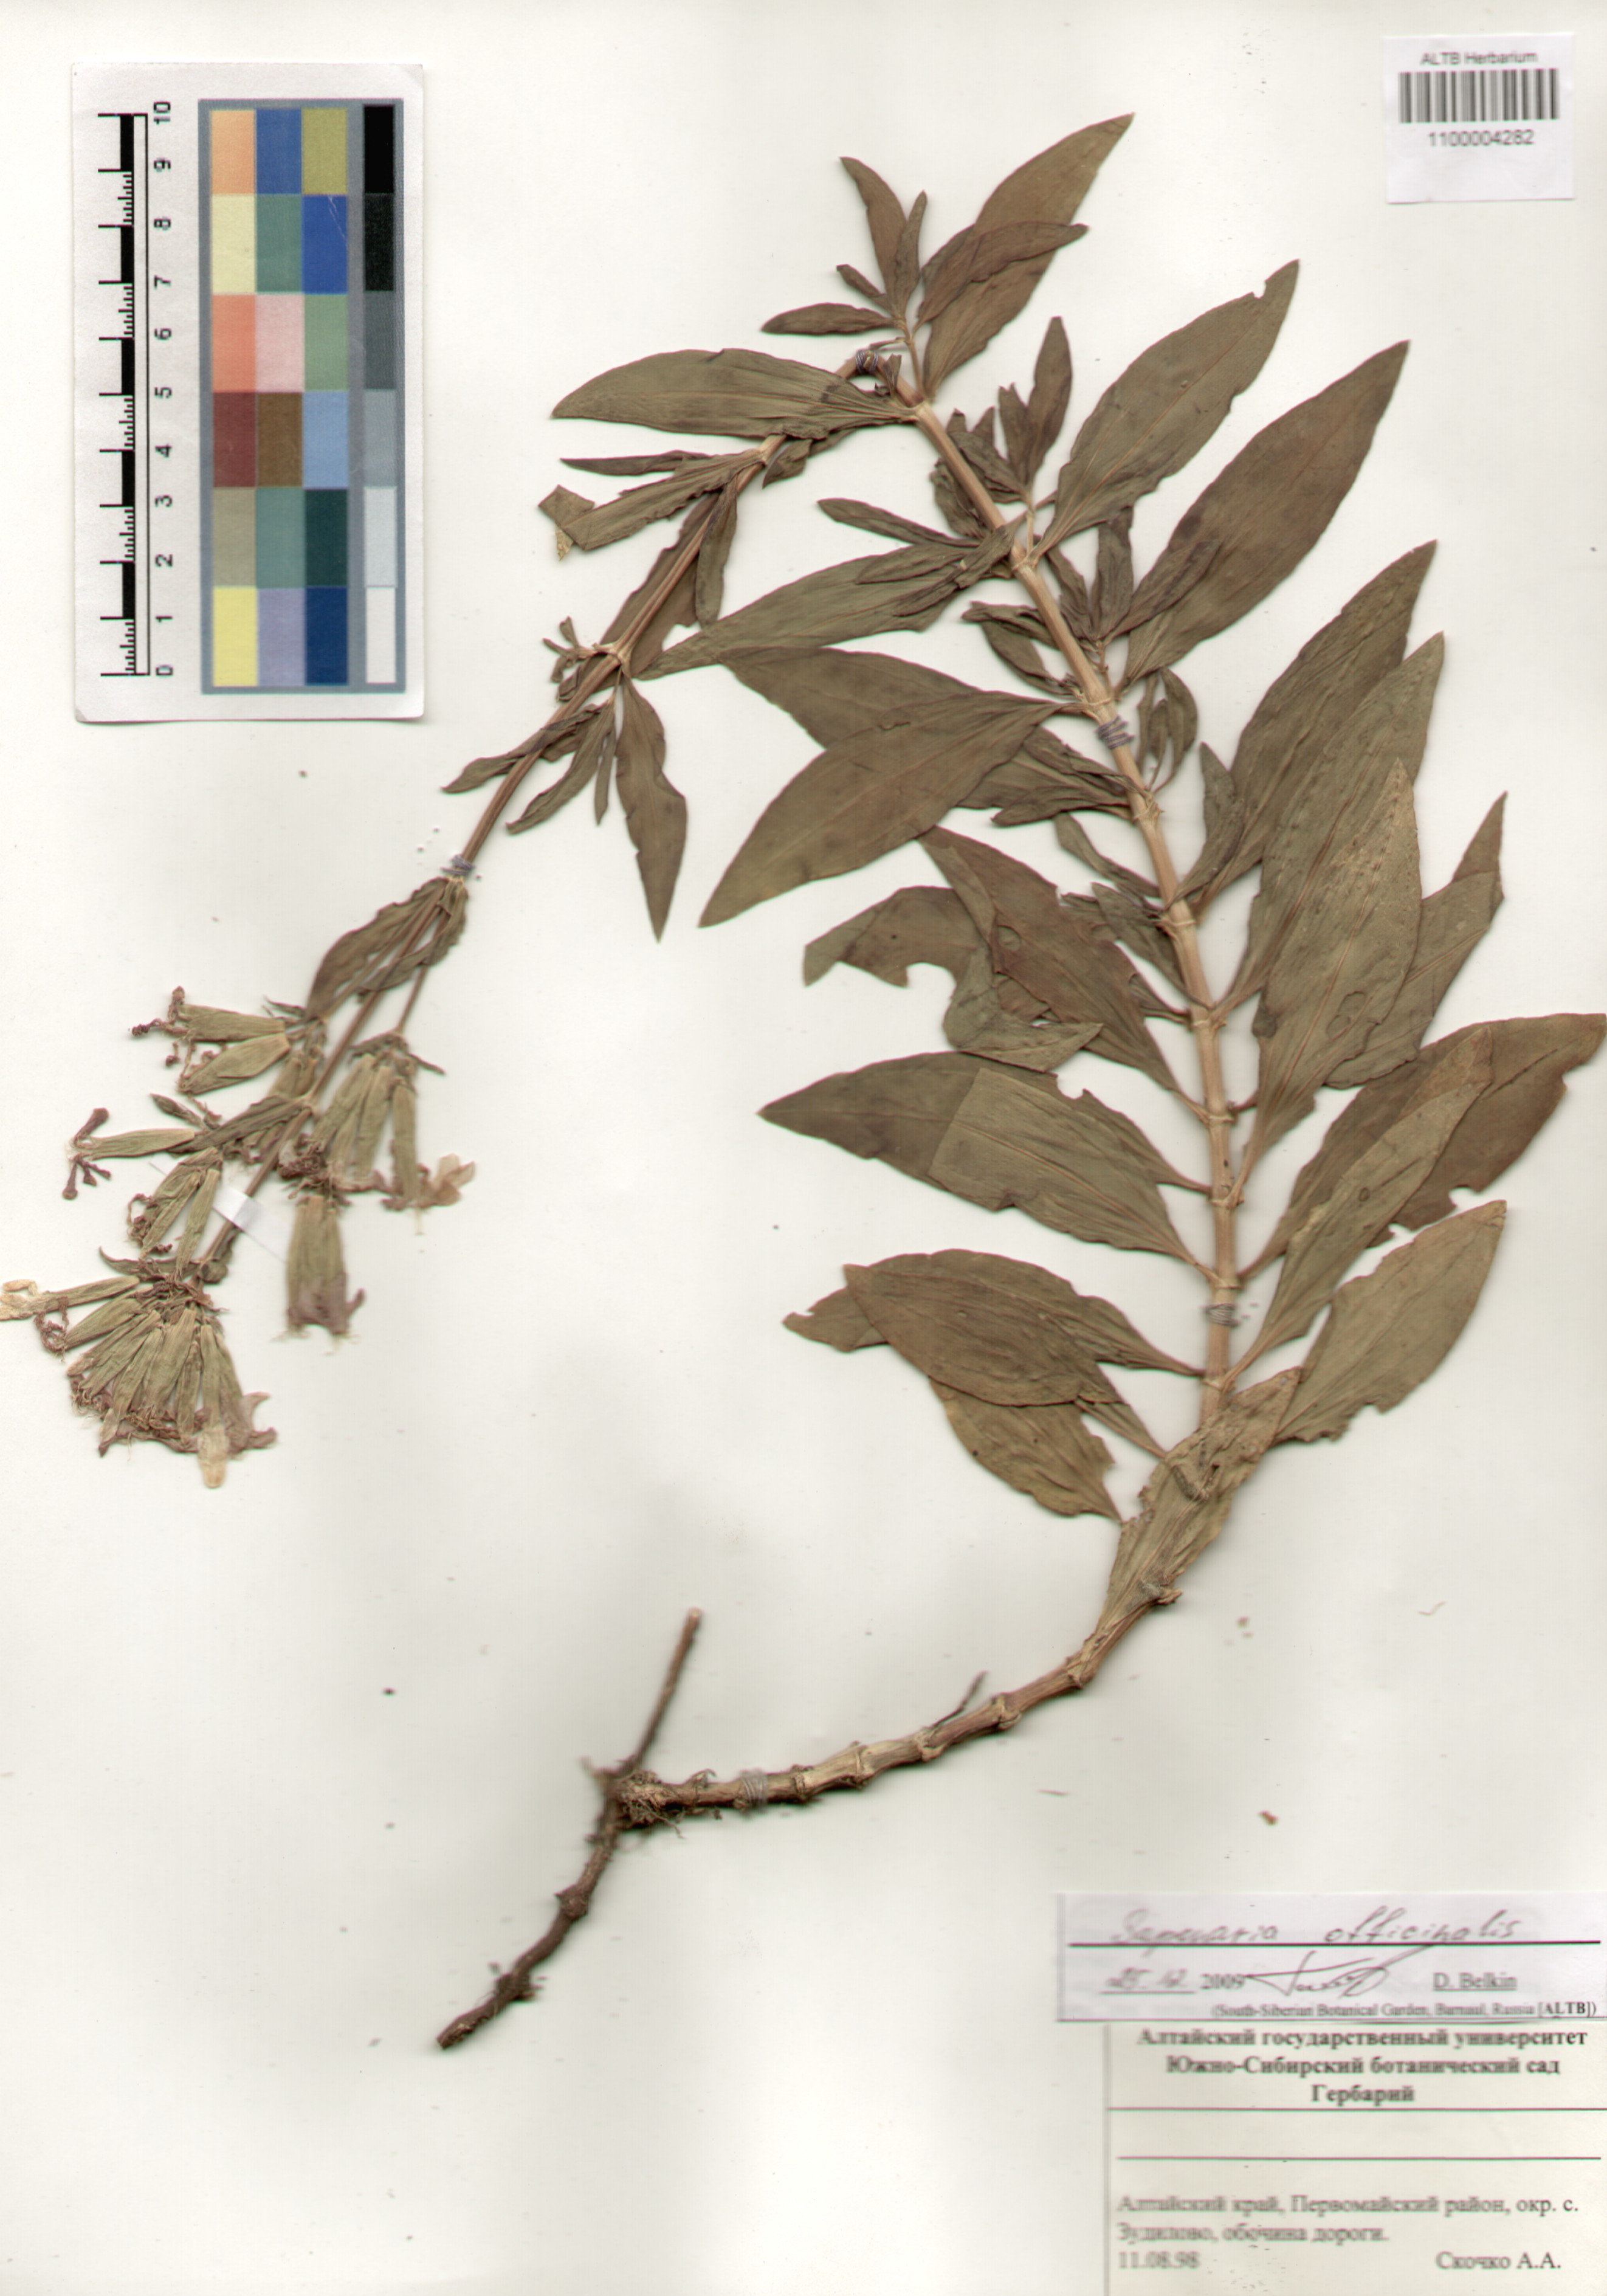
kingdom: Plantae
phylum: Tracheophyta
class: Magnoliopsida
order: Caryophyllales
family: Caryophyllaceae
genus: Saponaria
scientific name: Saponaria officinalis
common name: Soapwort
